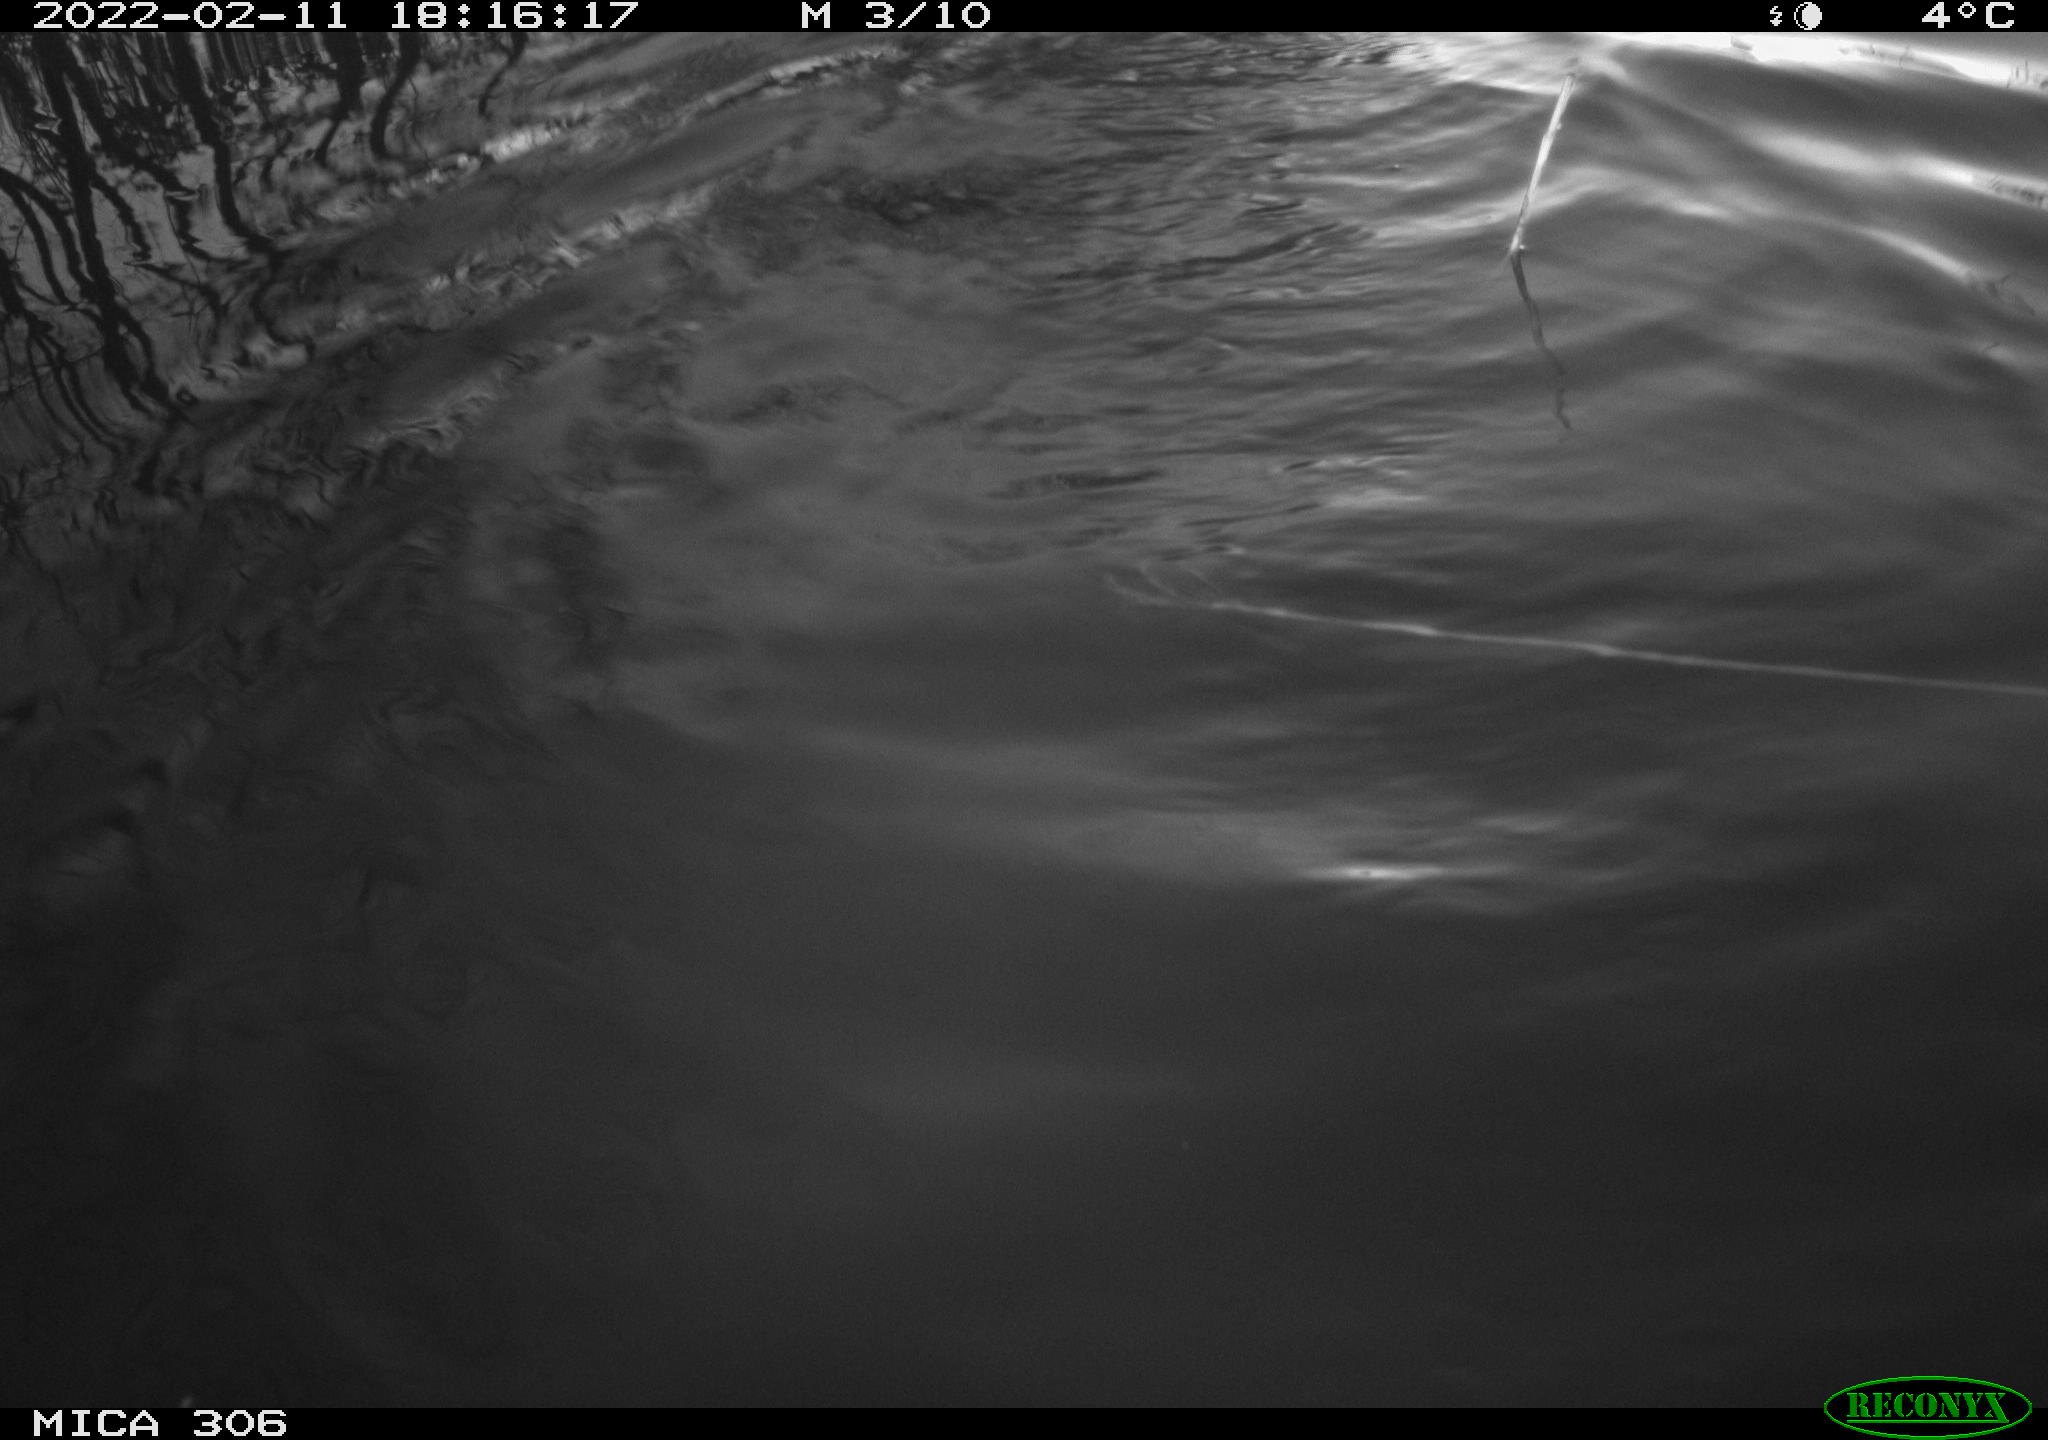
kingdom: Animalia
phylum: Chordata
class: Mammalia
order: Rodentia
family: Cricetidae
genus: Ondatra
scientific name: Ondatra zibethicus
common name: Muskrat
